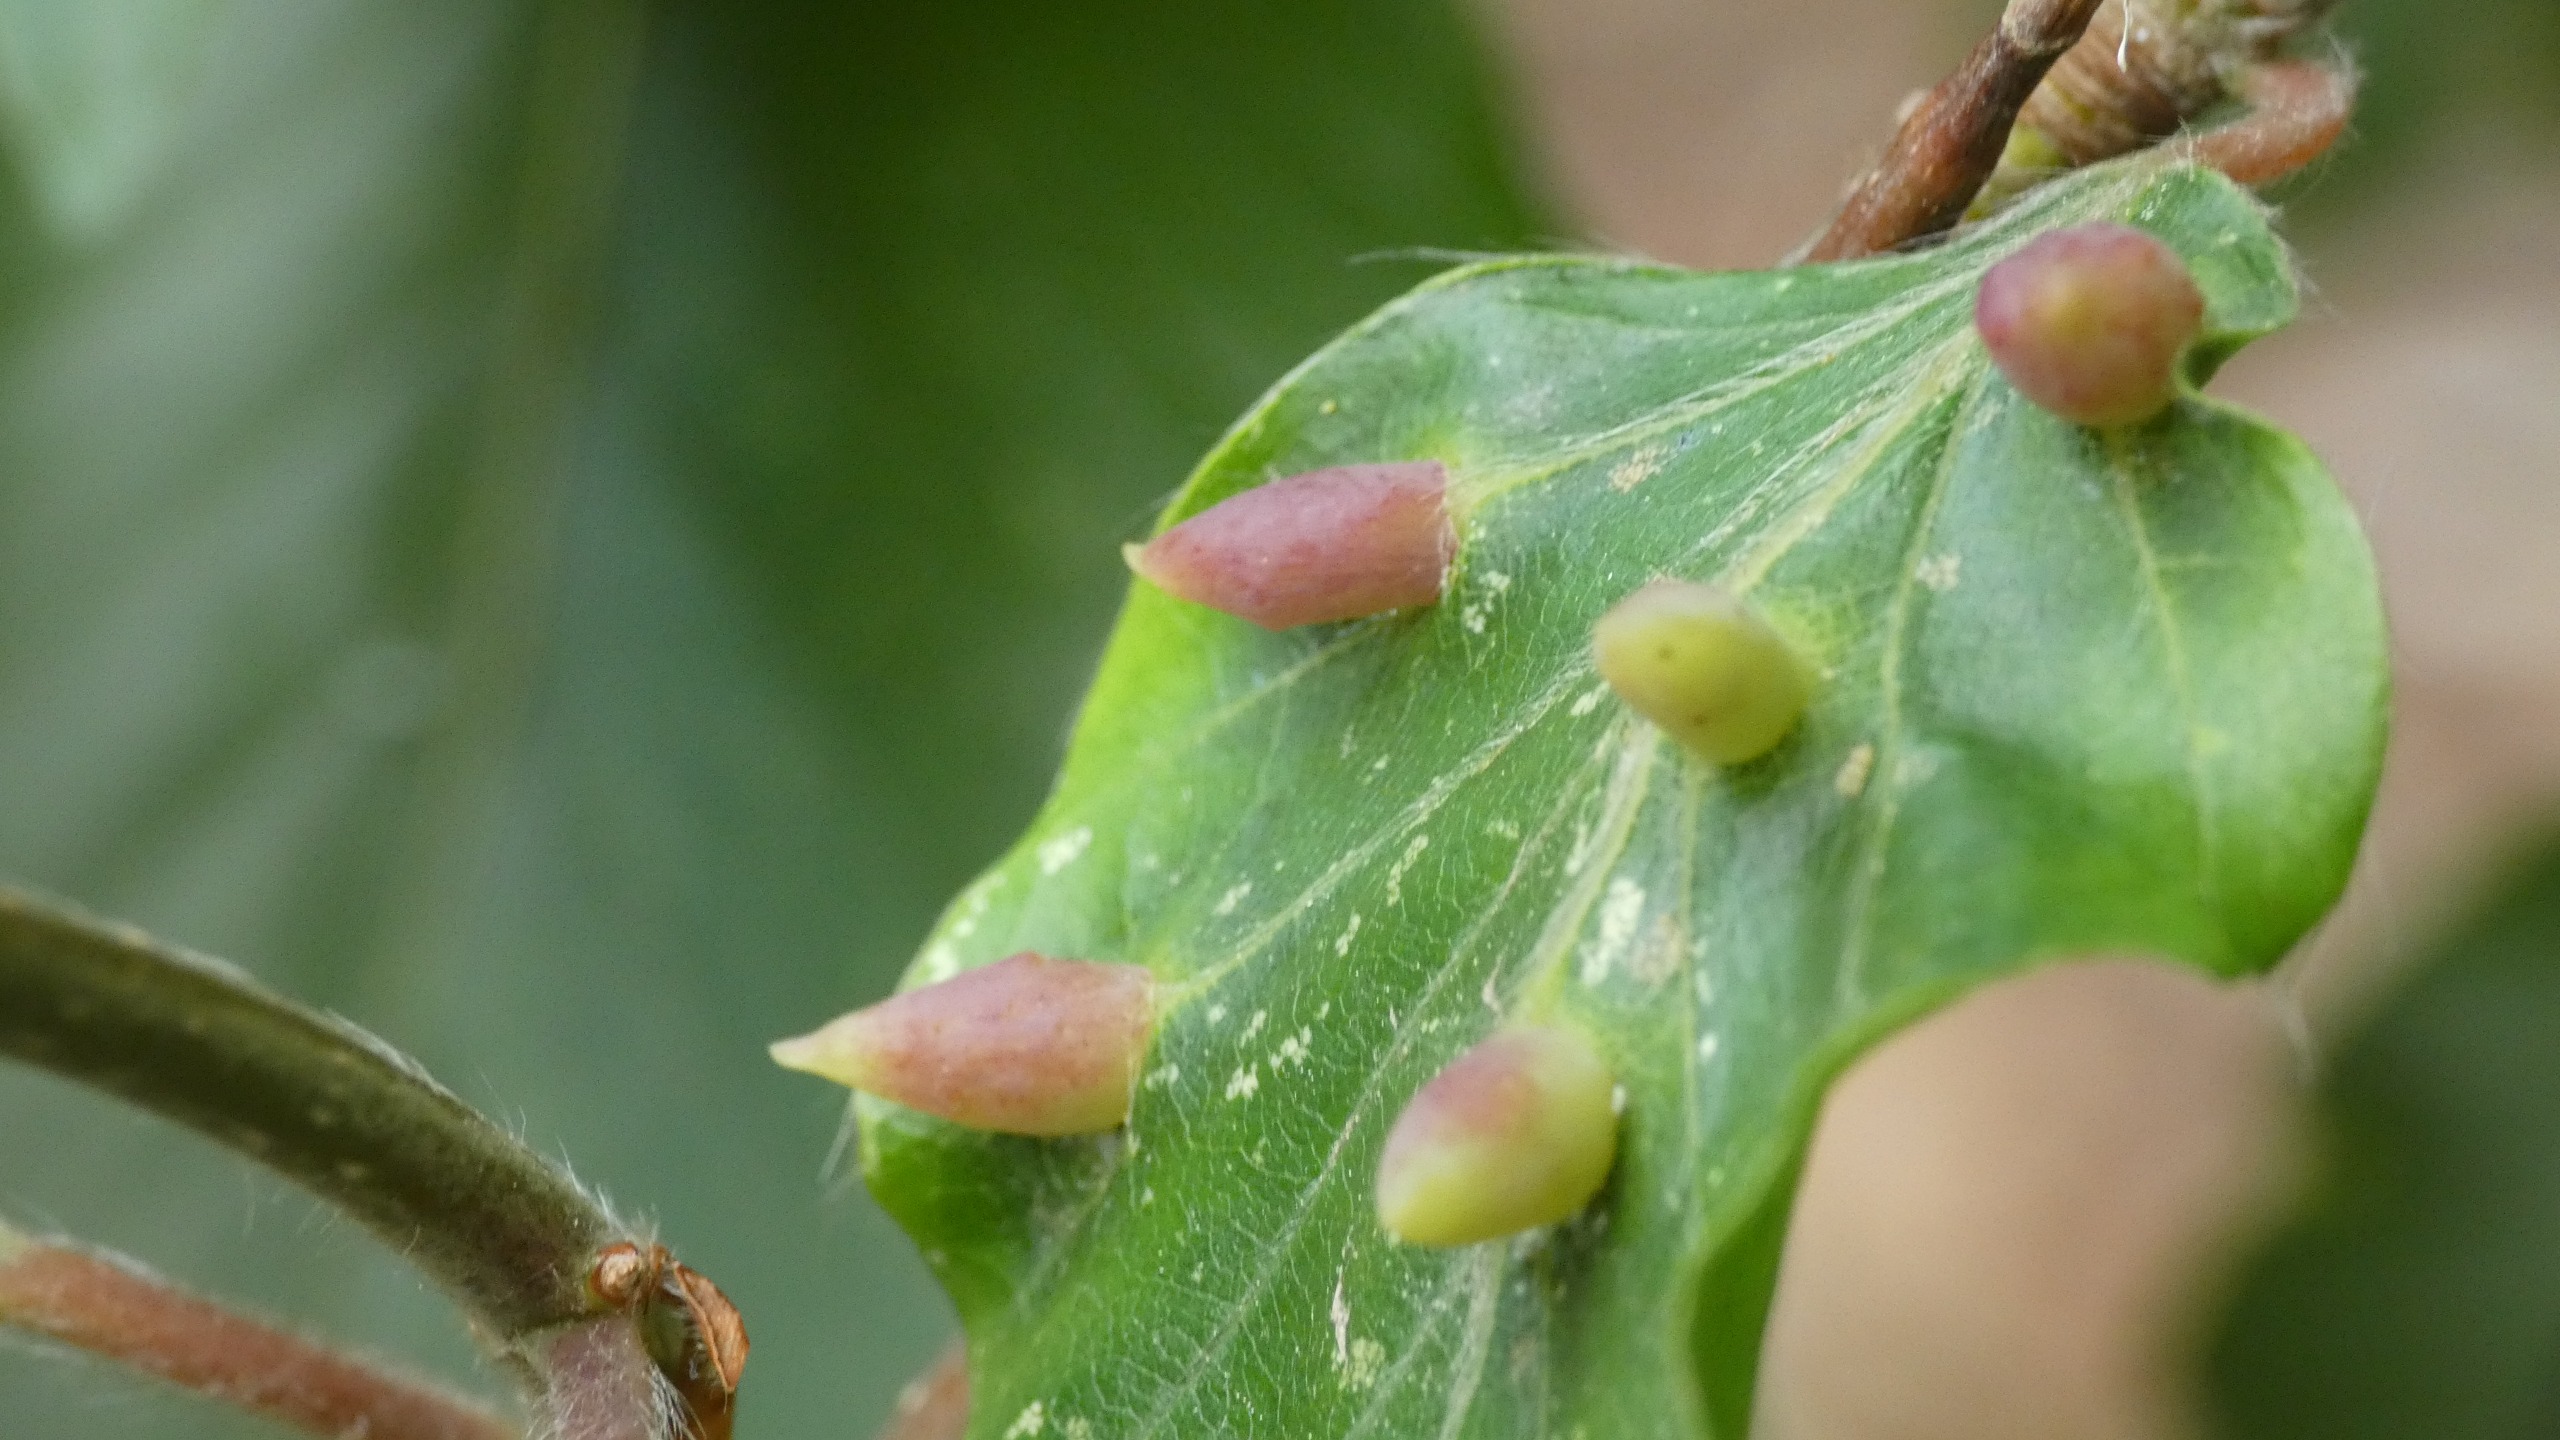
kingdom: Animalia
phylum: Arthropoda
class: Insecta
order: Diptera
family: Cecidomyiidae
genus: Mikiola
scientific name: Mikiola fagi
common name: Bøgegalmyg
